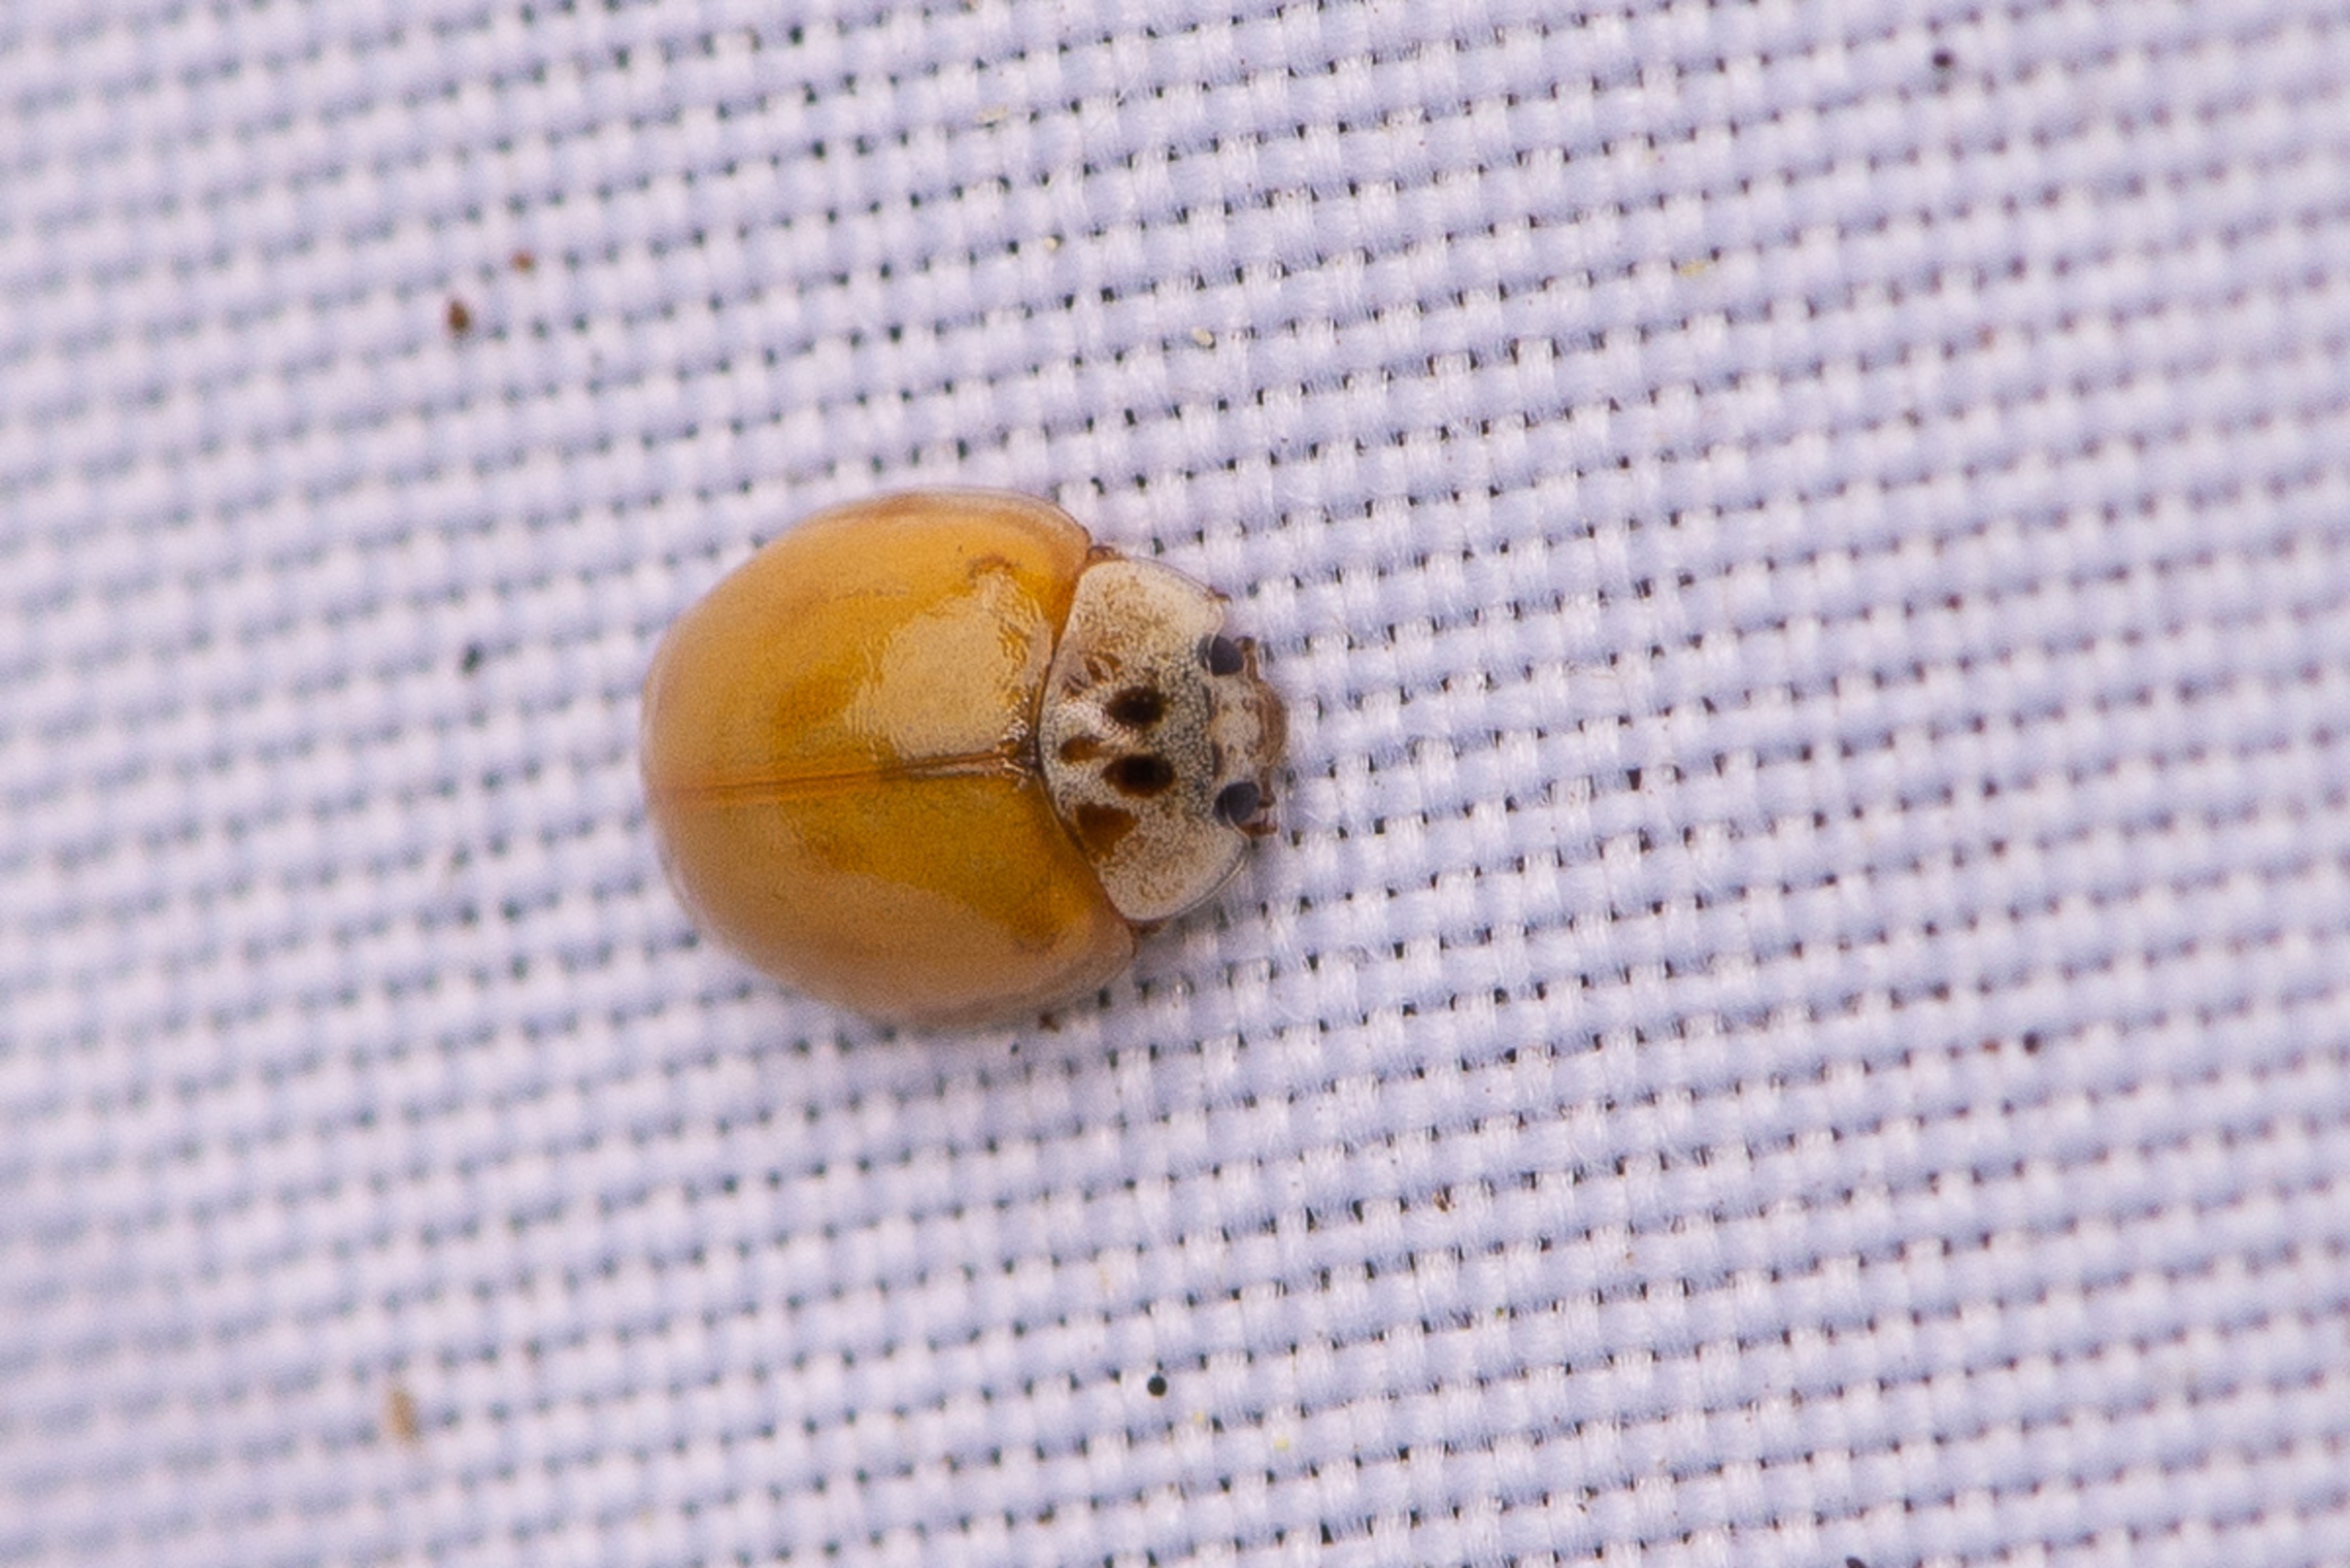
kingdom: Animalia
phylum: Arthropoda
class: Insecta
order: Coleoptera
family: Coccinellidae
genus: Adalia
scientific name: Adalia decempunctata
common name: Tiplettet mariehøne
